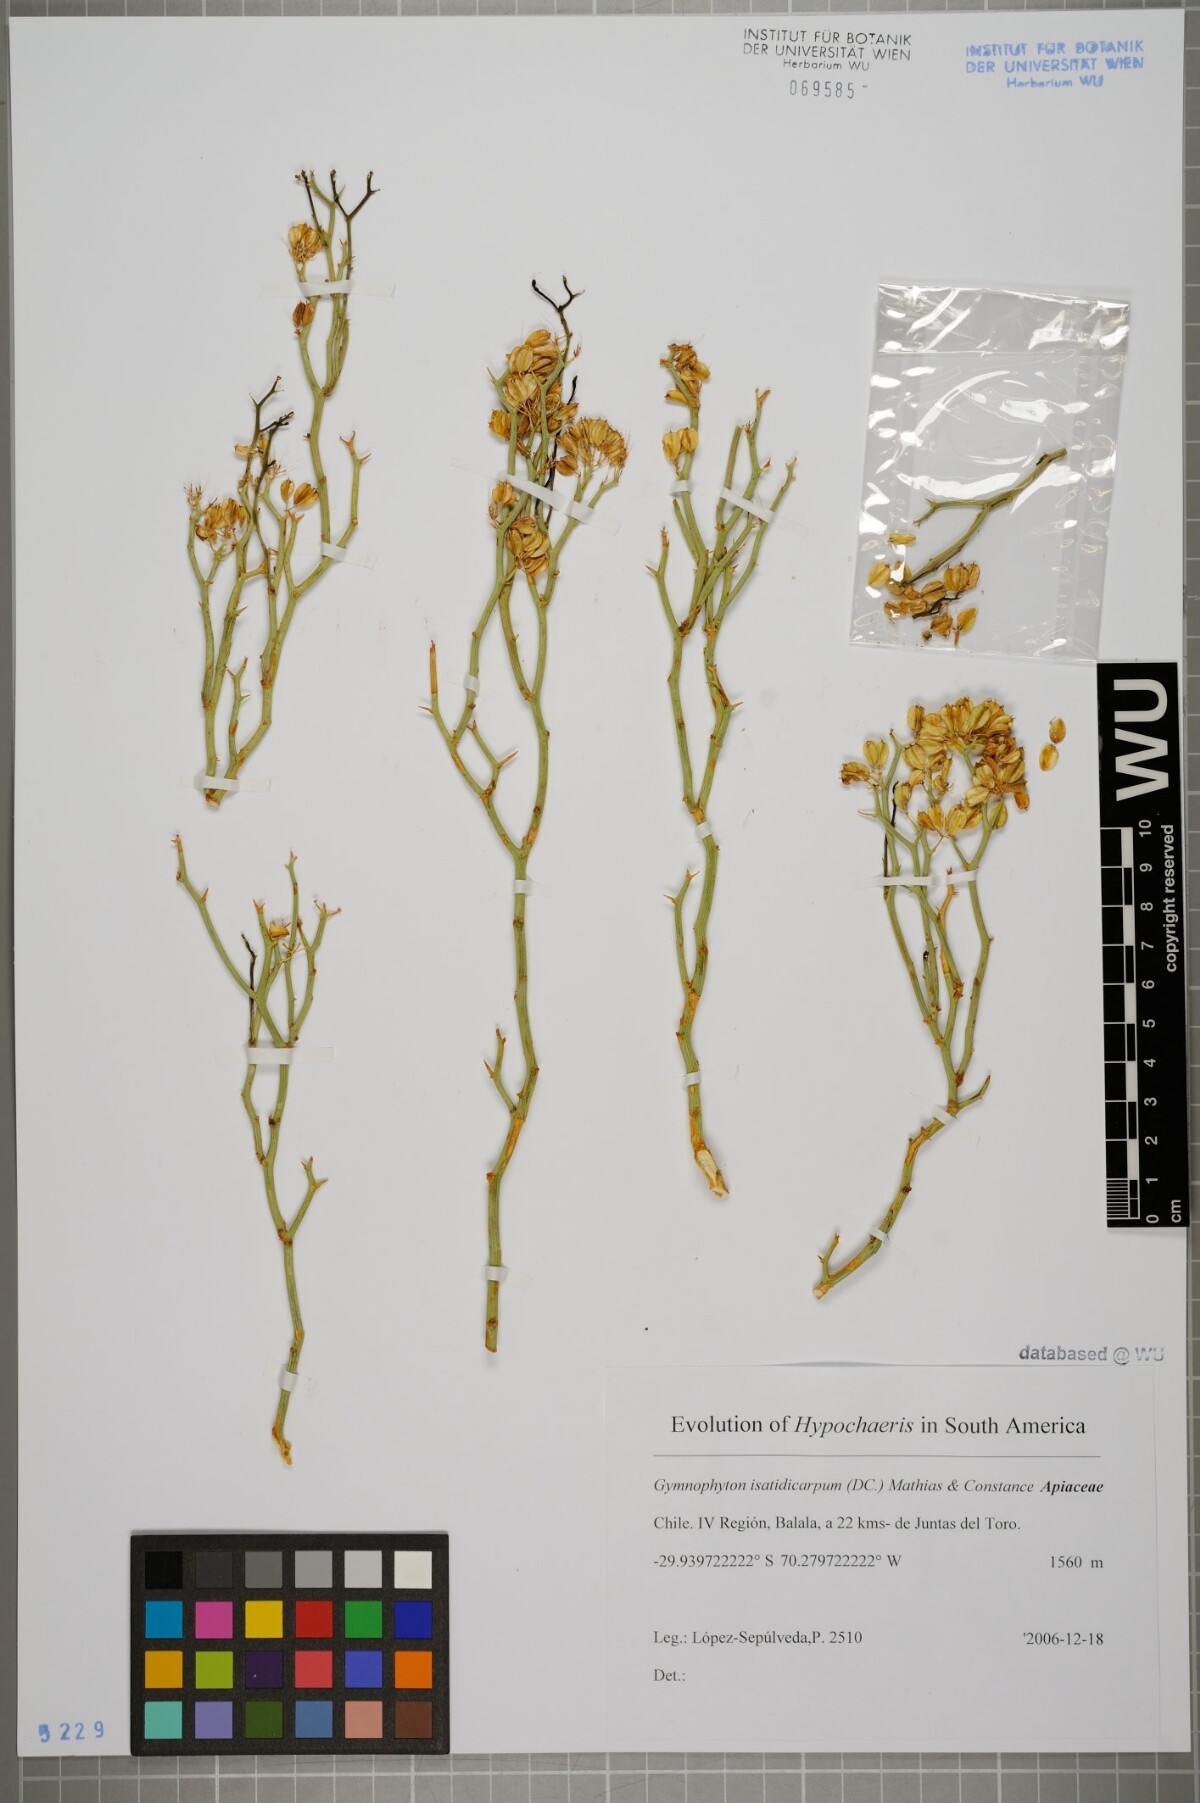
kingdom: Plantae
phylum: Tracheophyta
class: Magnoliopsida
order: Apiales
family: Apiaceae
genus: Gymnophyton
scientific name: Gymnophyton isatidicarpum
